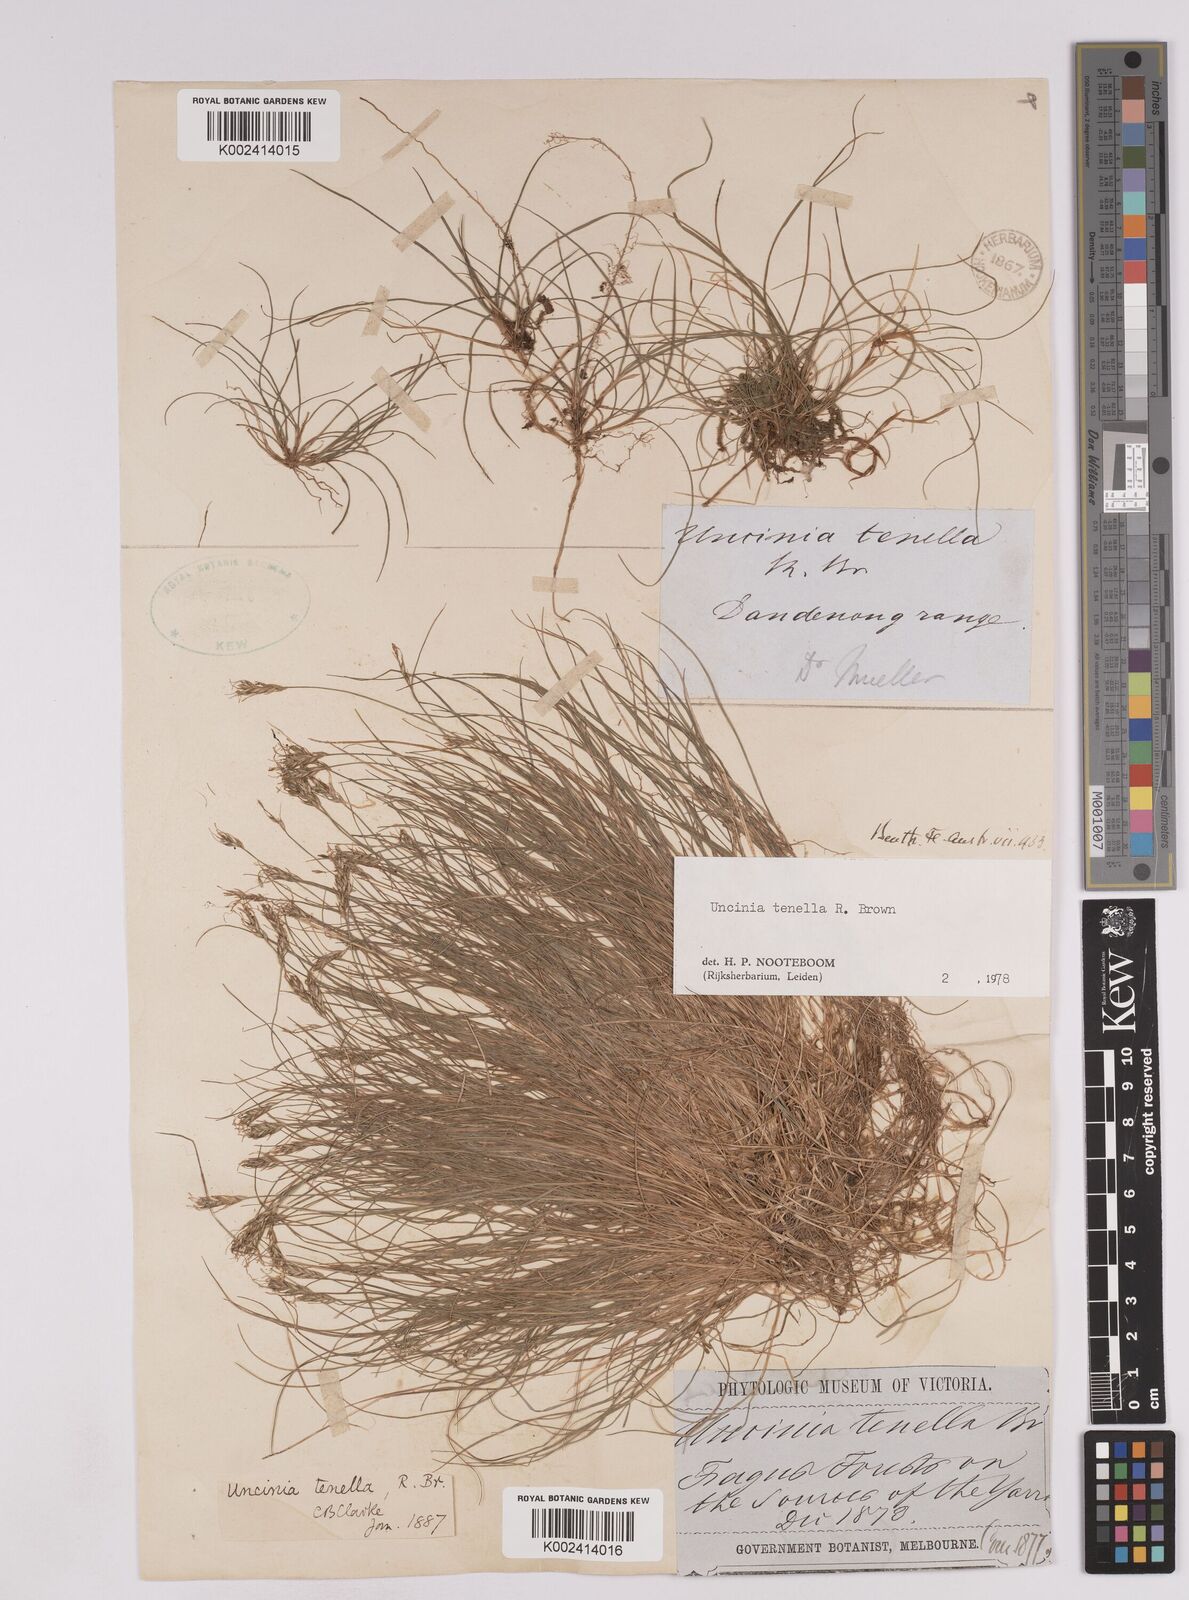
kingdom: Plantae
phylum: Tracheophyta
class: Liliopsida
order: Poales
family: Cyperaceae
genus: Carex
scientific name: Carex austrotenella
